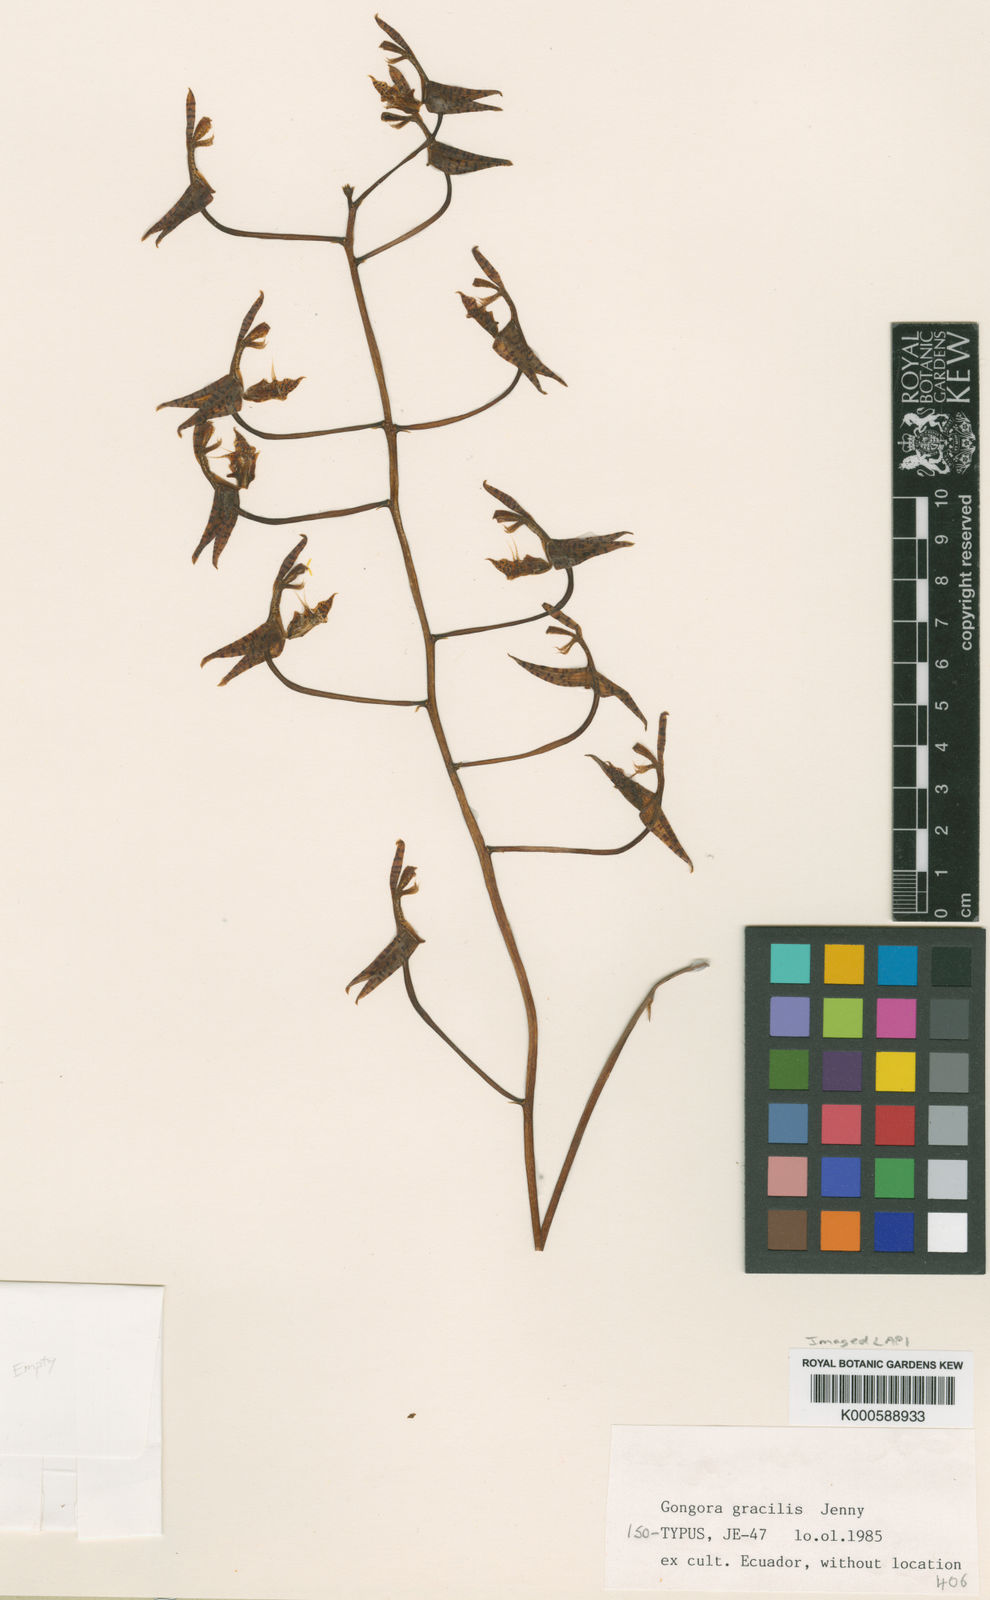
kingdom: Plantae
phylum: Tracheophyta
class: Liliopsida
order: Asparagales
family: Orchidaceae
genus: Gongora
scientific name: Gongora pleiochroma
